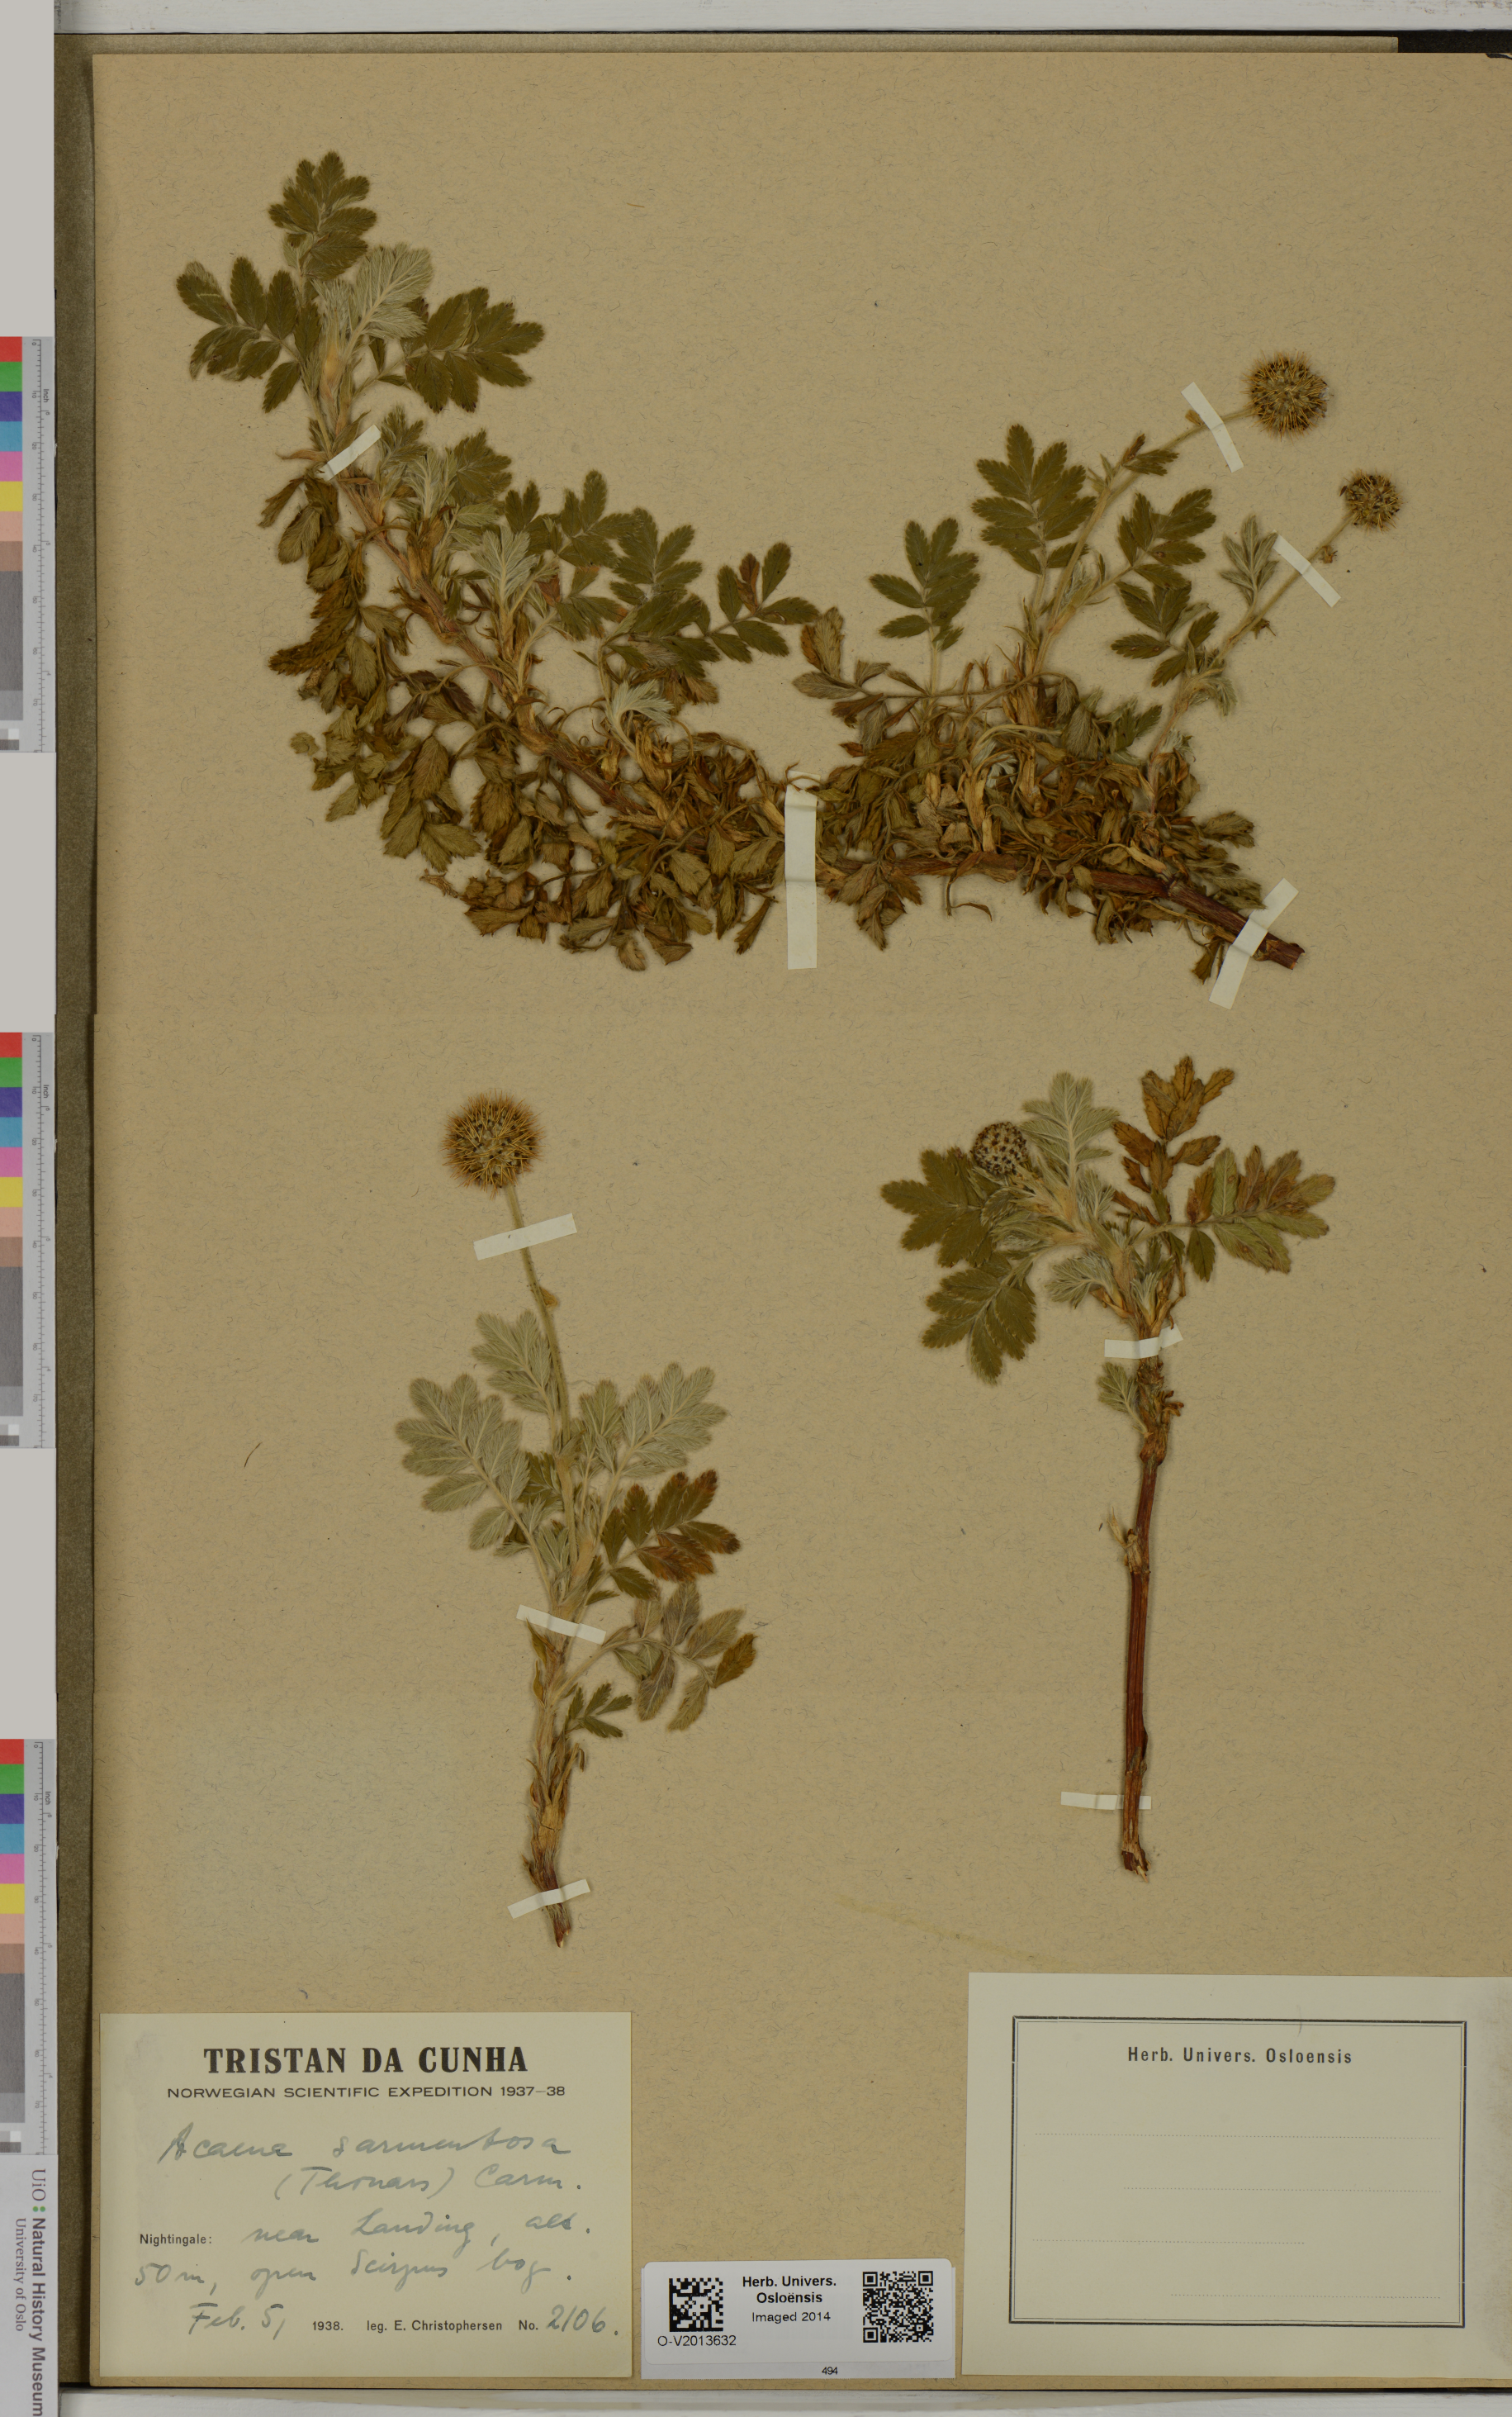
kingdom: Plantae
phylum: Tracheophyta
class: Magnoliopsida
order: Rosales
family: Rosaceae
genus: Acaena
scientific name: Acaena sarmentosa
